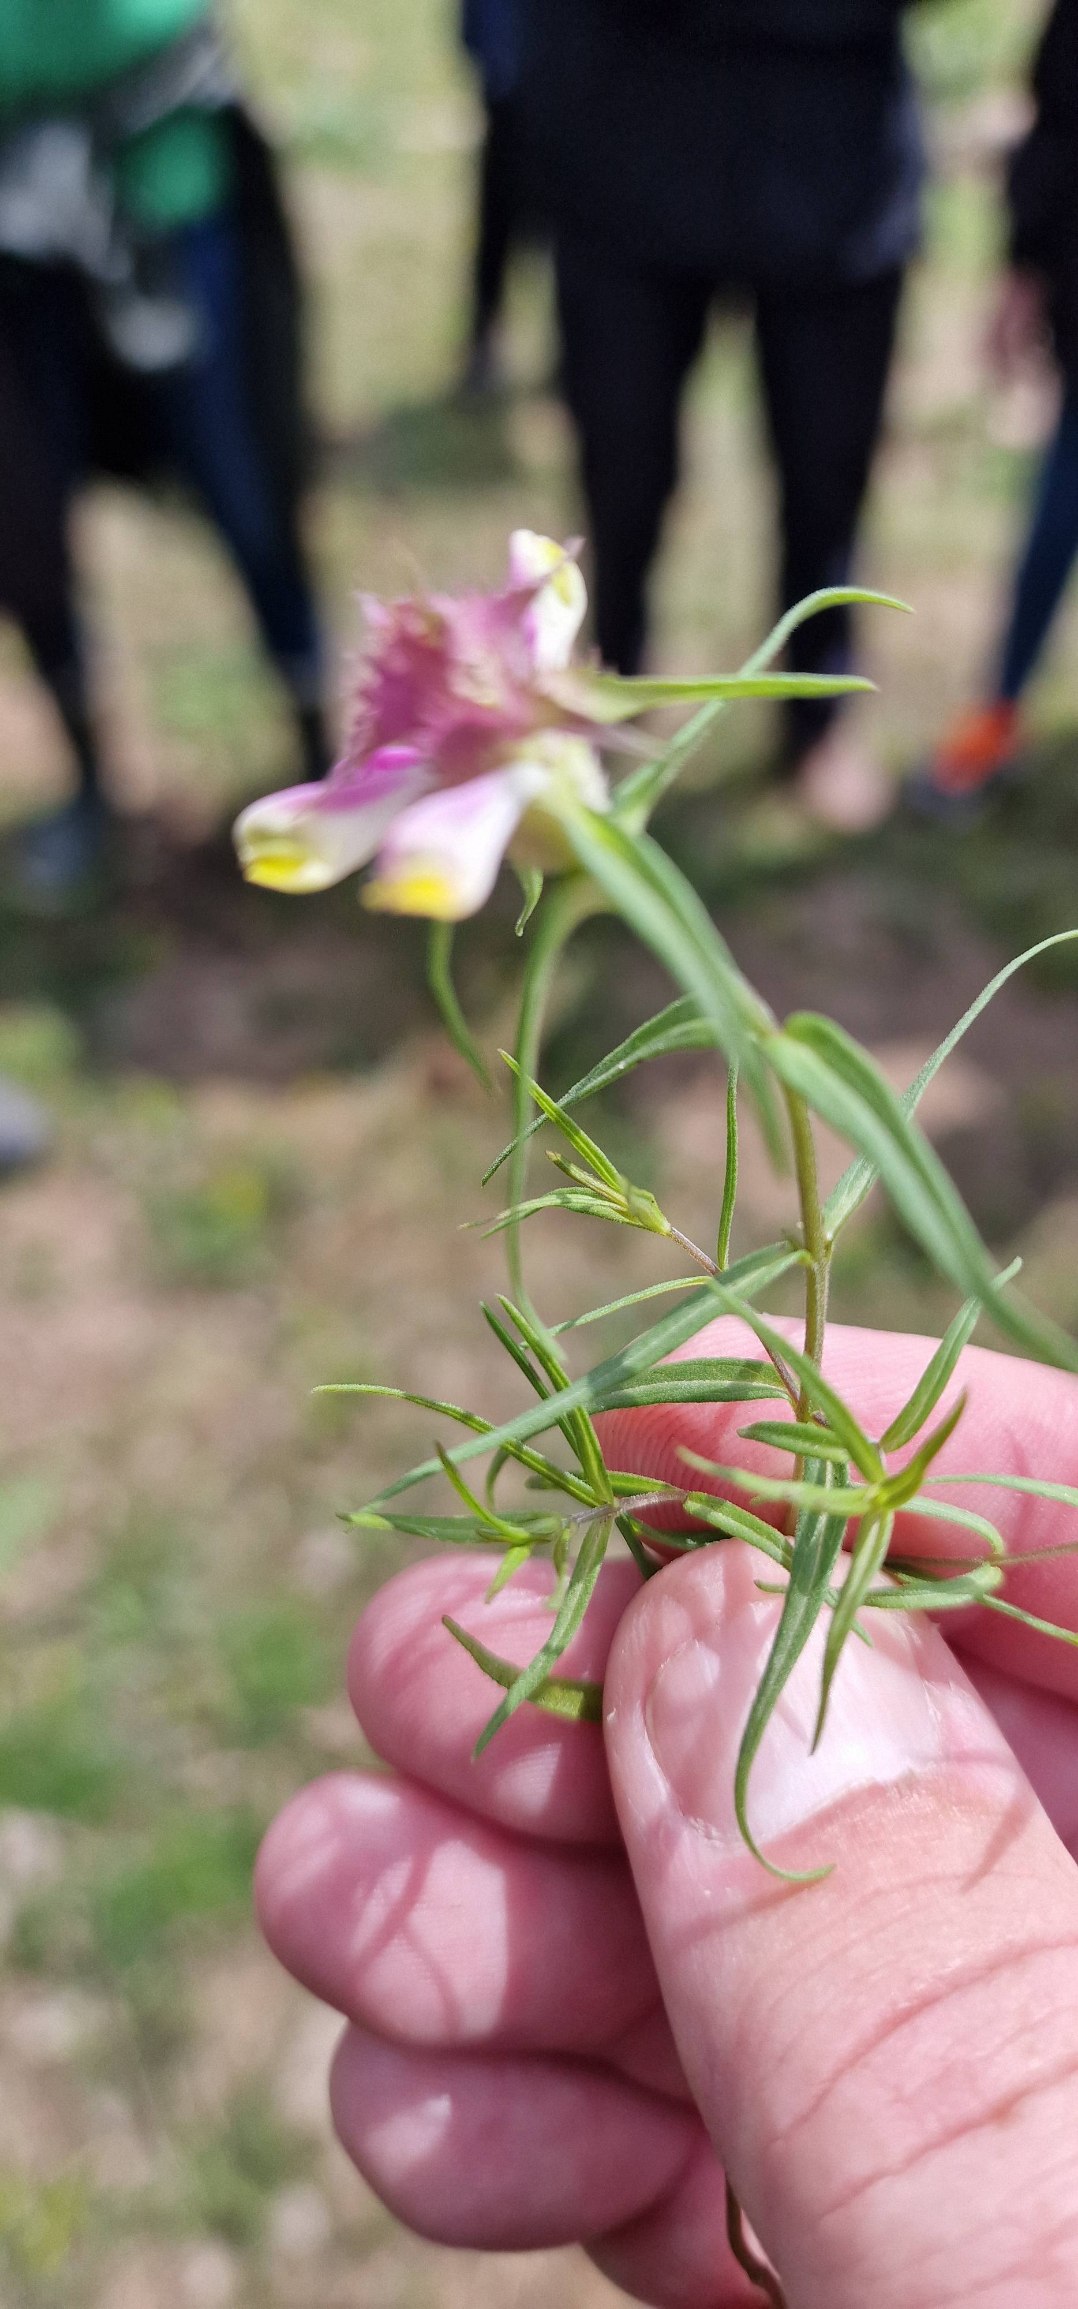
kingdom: Plantae
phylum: Tracheophyta
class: Magnoliopsida
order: Lamiales
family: Orobanchaceae
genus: Melampyrum
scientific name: Melampyrum cristatum
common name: Kantet kohvede
